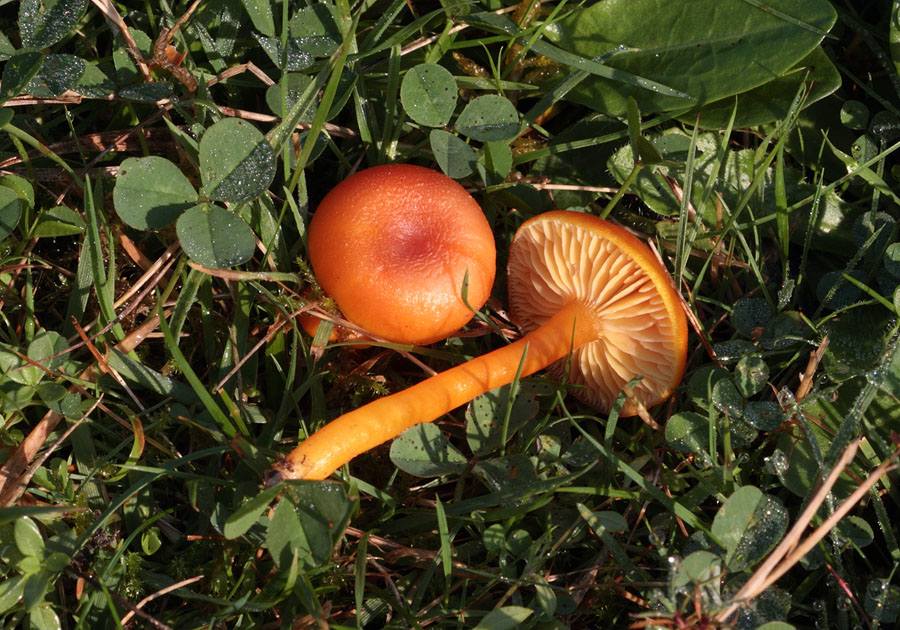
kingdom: Fungi
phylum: Basidiomycota
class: Agaricomycetes
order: Agaricales
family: Hygrophoraceae
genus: Hygrocybe
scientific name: Hygrocybe miniata
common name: mønje-vokshat
